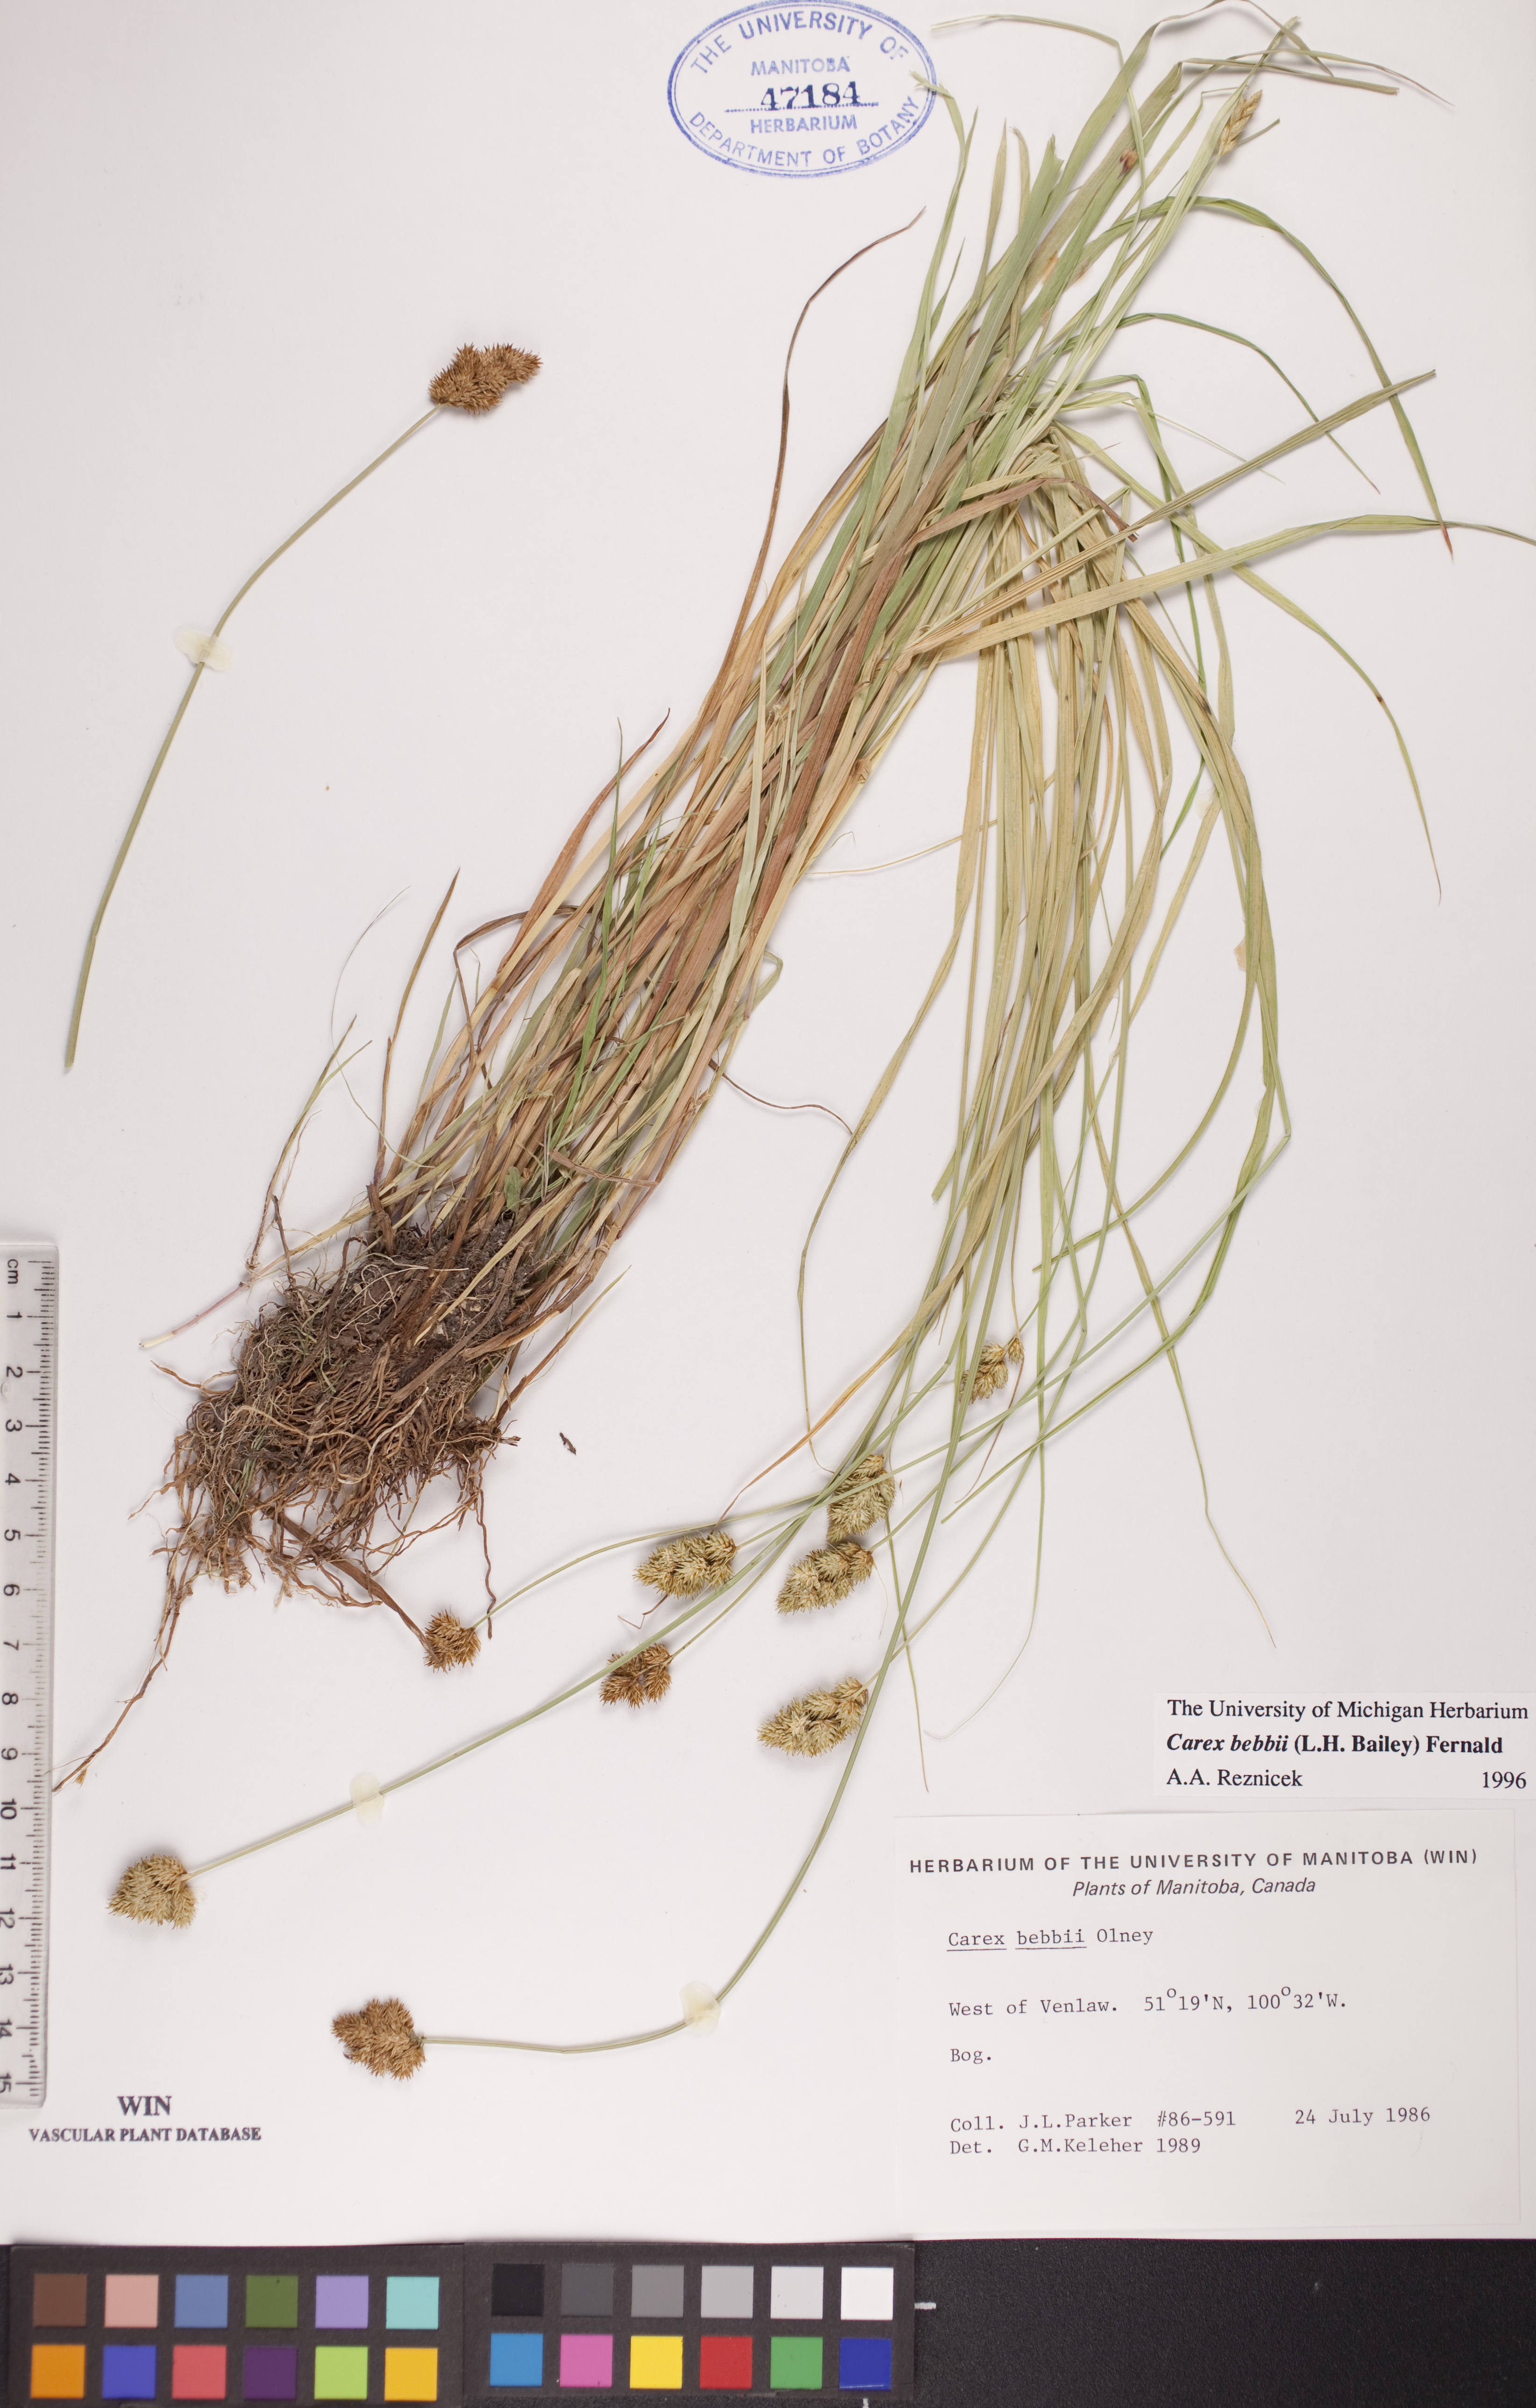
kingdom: Plantae
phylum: Tracheophyta
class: Liliopsida
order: Poales
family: Cyperaceae
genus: Carex
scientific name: Carex bebbii
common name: Bebb's sedge
